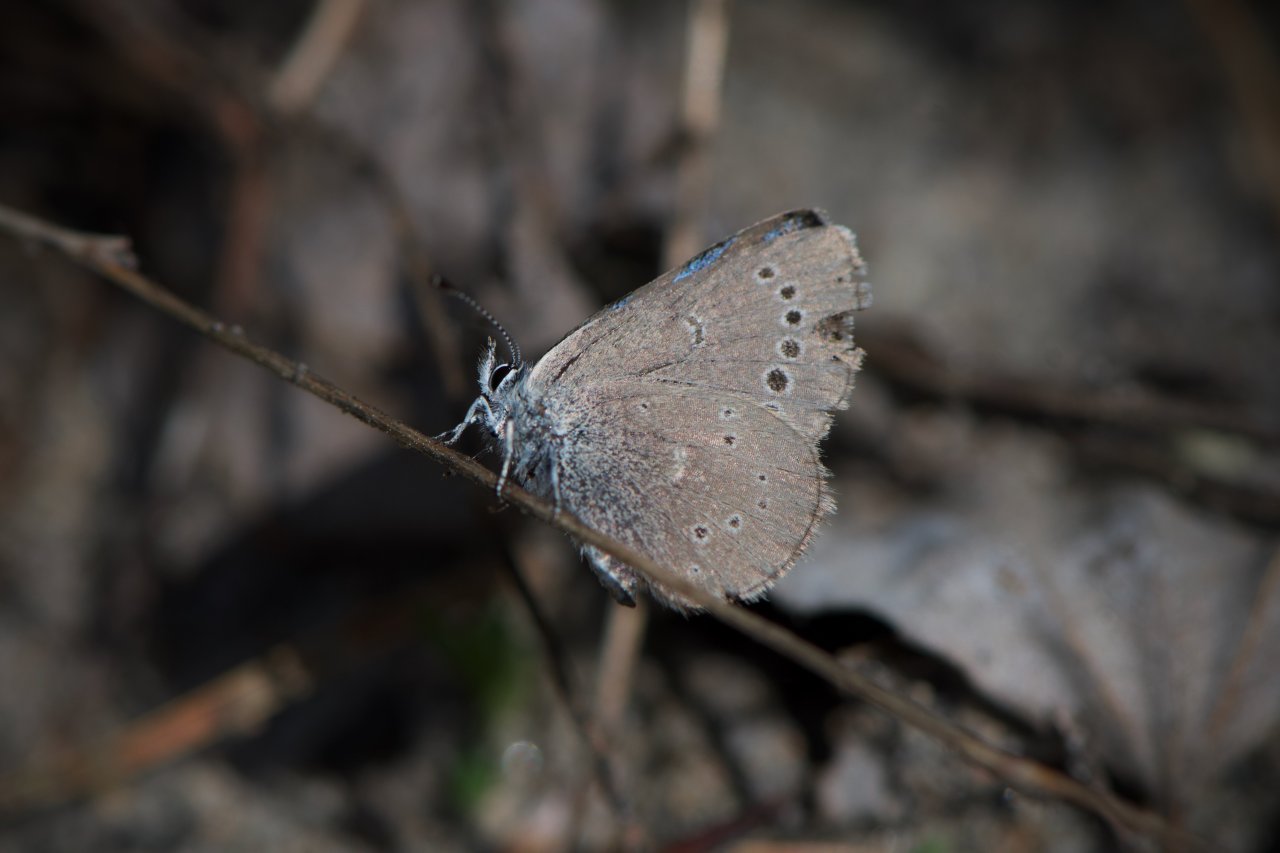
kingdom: Animalia
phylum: Arthropoda
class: Insecta
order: Lepidoptera
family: Lycaenidae
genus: Glaucopsyche
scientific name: Glaucopsyche lygdamus
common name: Silvery Blue
